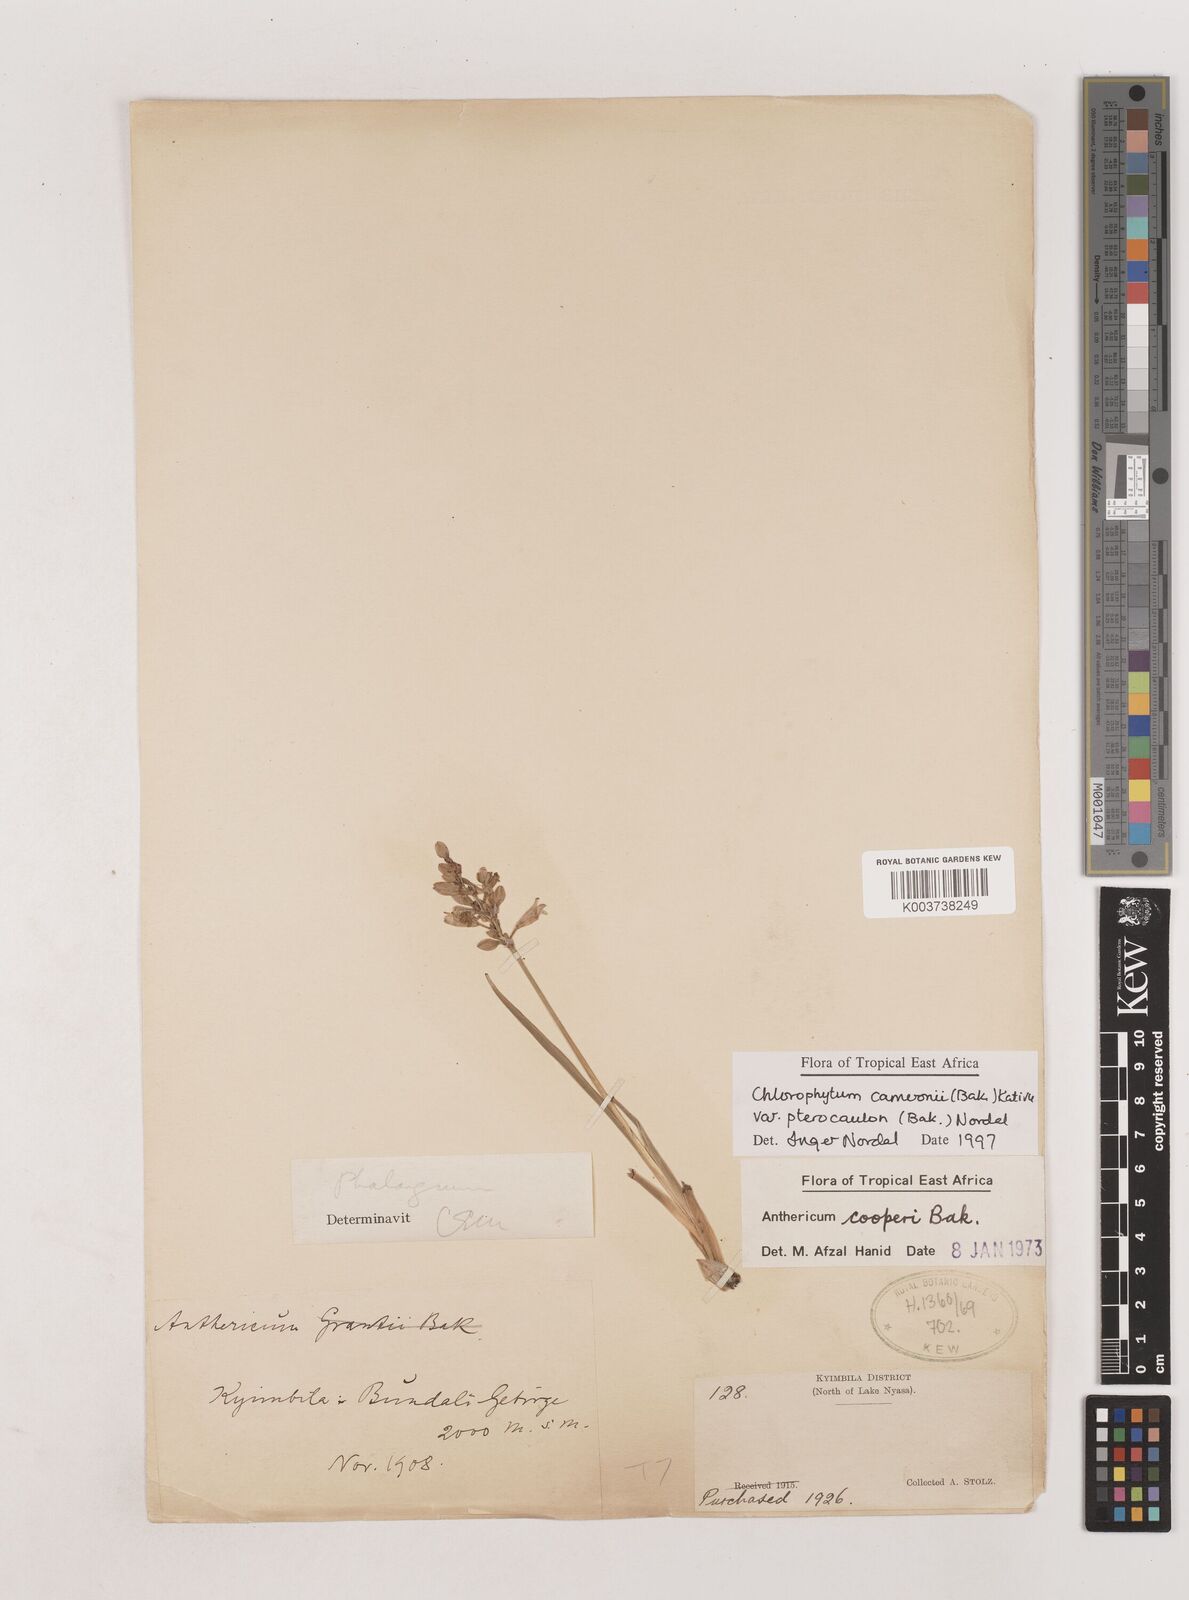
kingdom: Plantae
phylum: Tracheophyta
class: Liliopsida
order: Asparagales
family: Asparagaceae
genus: Chlorophytum
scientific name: Chlorophytum cameronii
